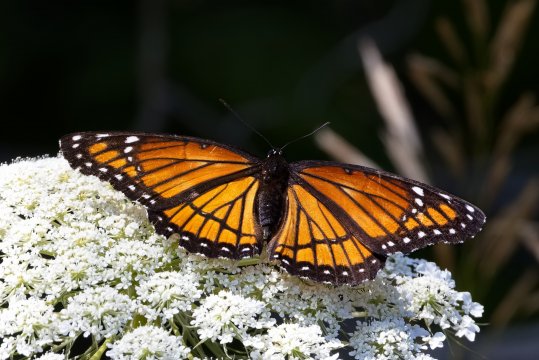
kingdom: Animalia
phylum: Arthropoda
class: Insecta
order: Lepidoptera
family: Nymphalidae
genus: Limenitis
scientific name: Limenitis archippus
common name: Viceroy
